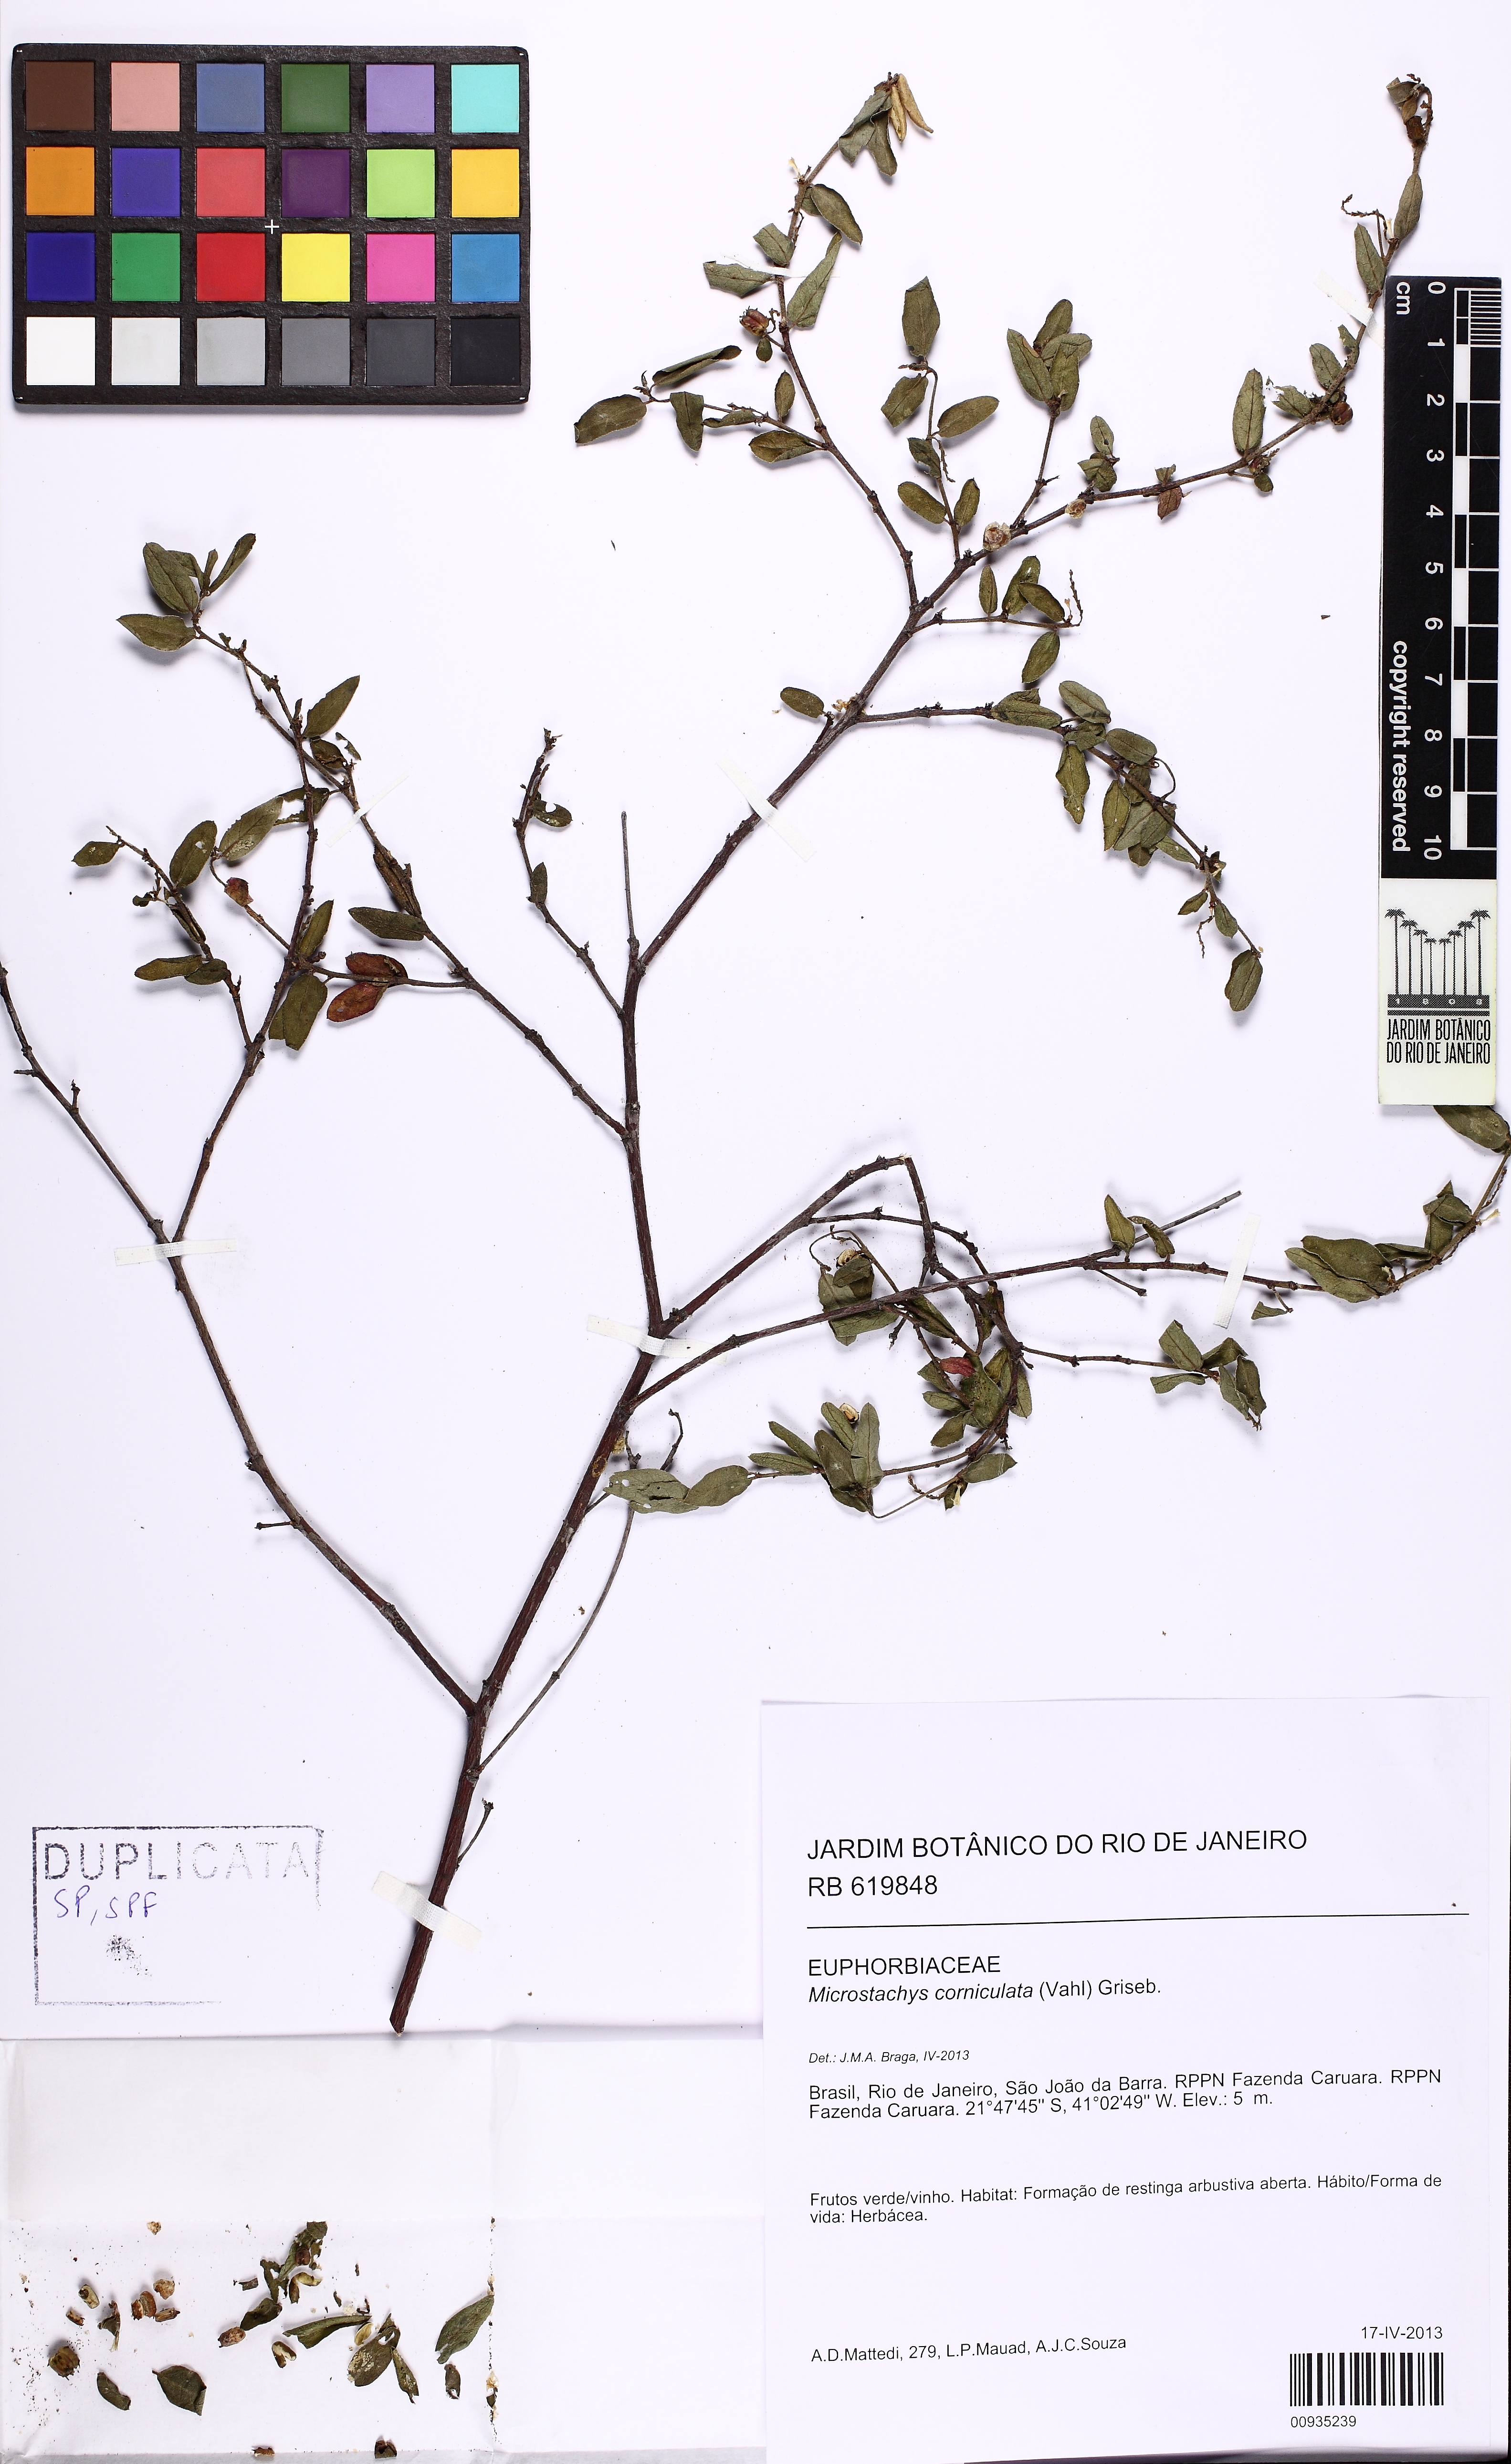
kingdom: Plantae
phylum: Tracheophyta
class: Magnoliopsida
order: Malpighiales
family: Euphorbiaceae
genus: Microstachys
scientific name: Microstachys corniculata
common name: Hato tejas
